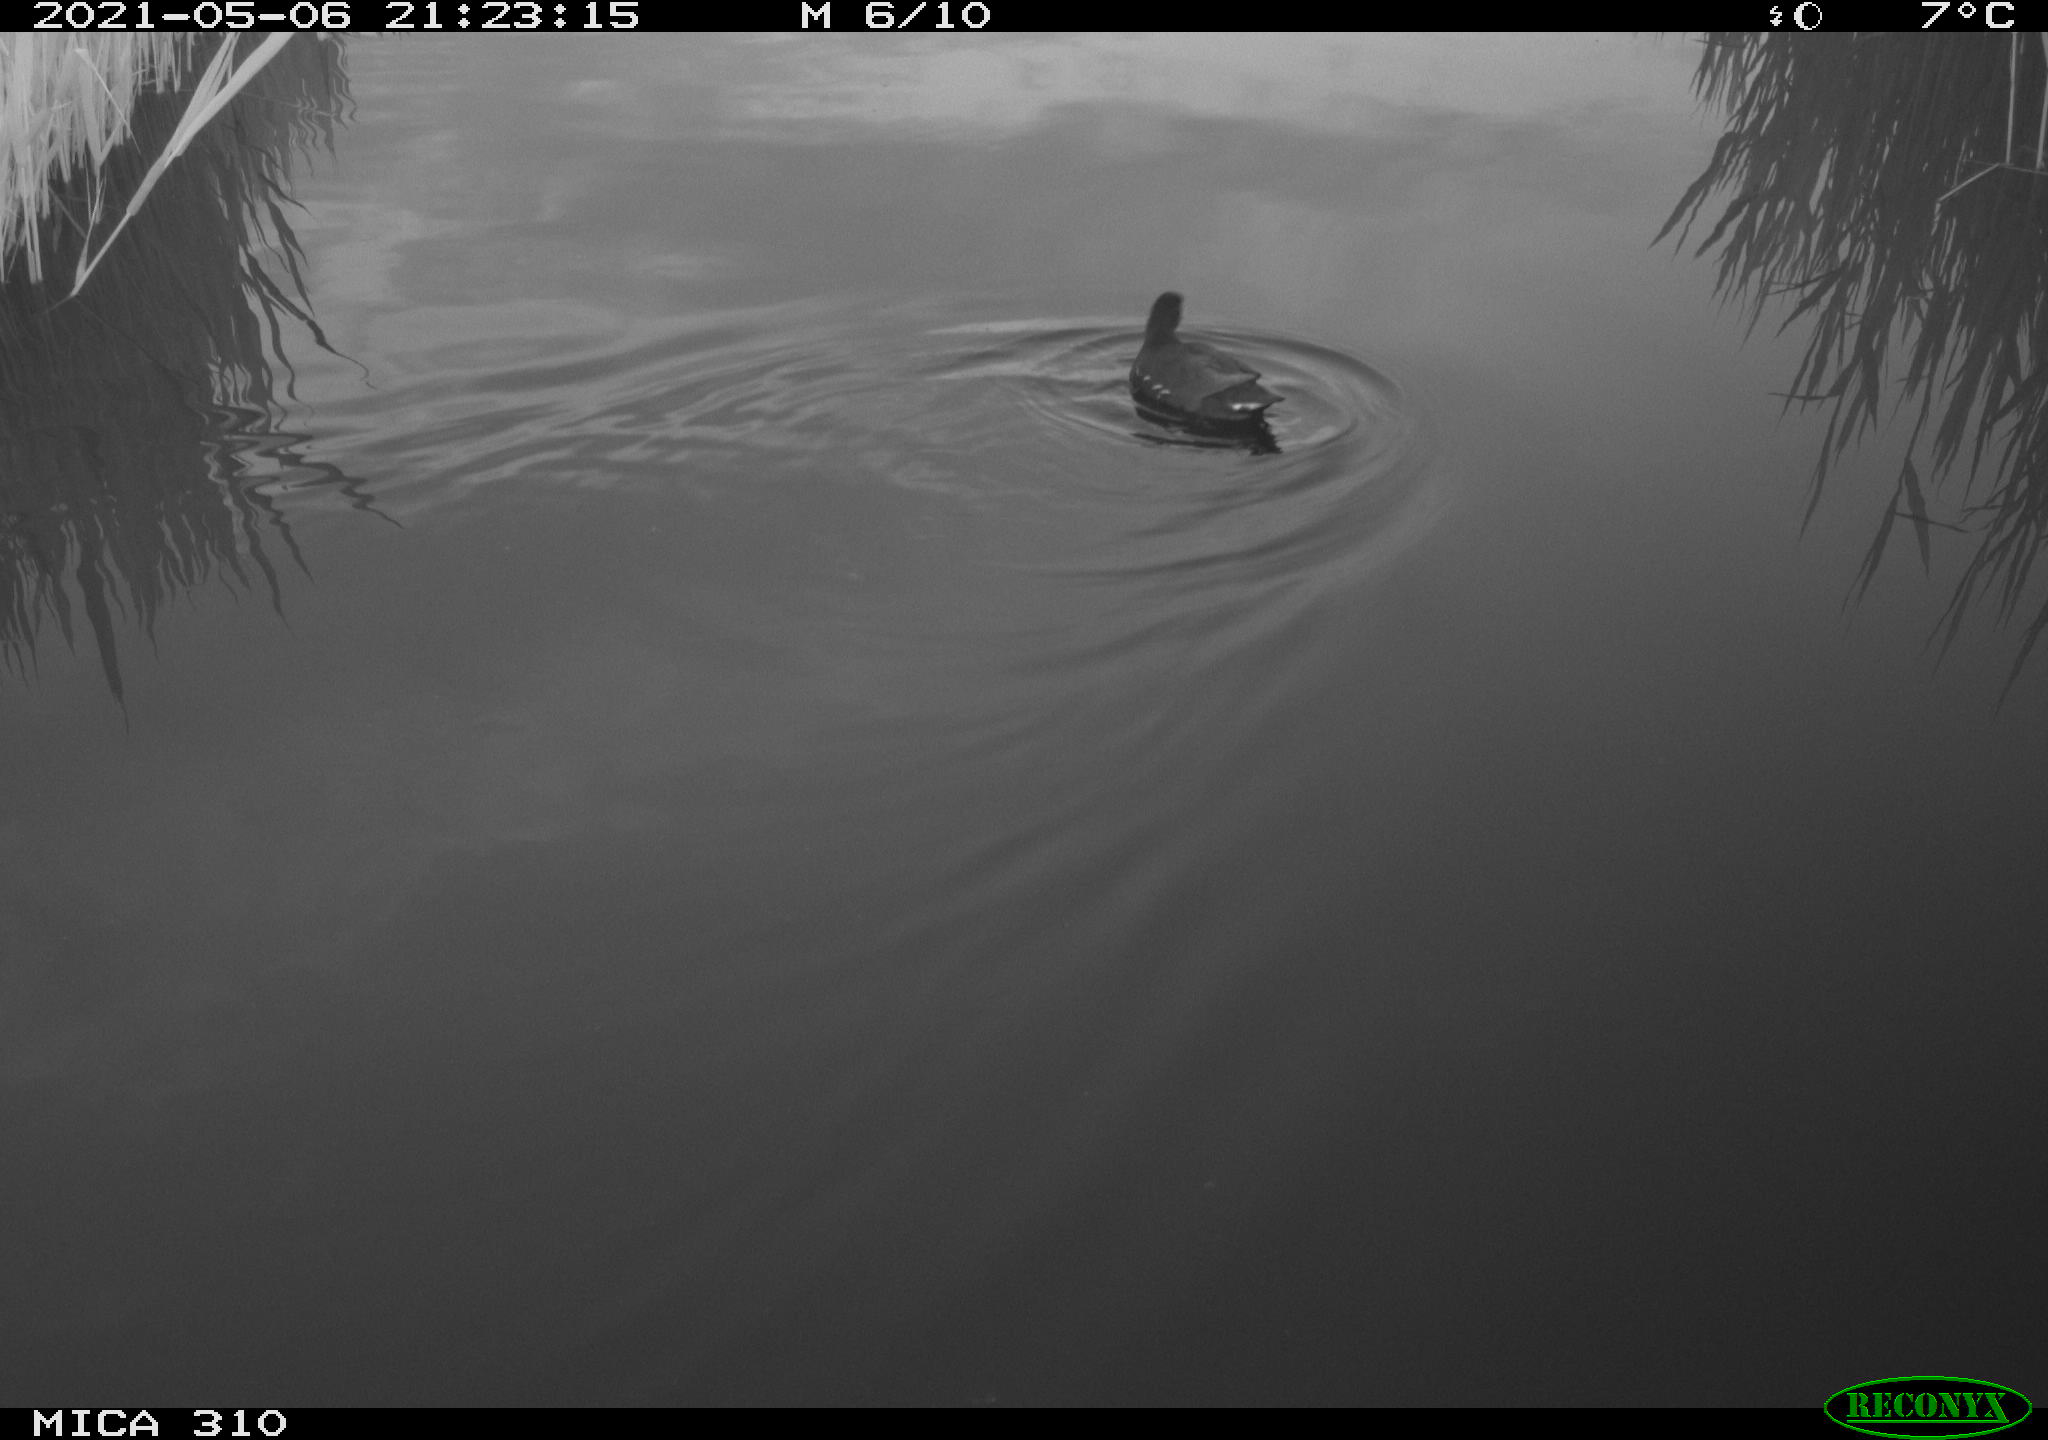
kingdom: Animalia
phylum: Chordata
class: Aves
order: Gruiformes
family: Rallidae
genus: Gallinula
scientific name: Gallinula chloropus
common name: Common moorhen
